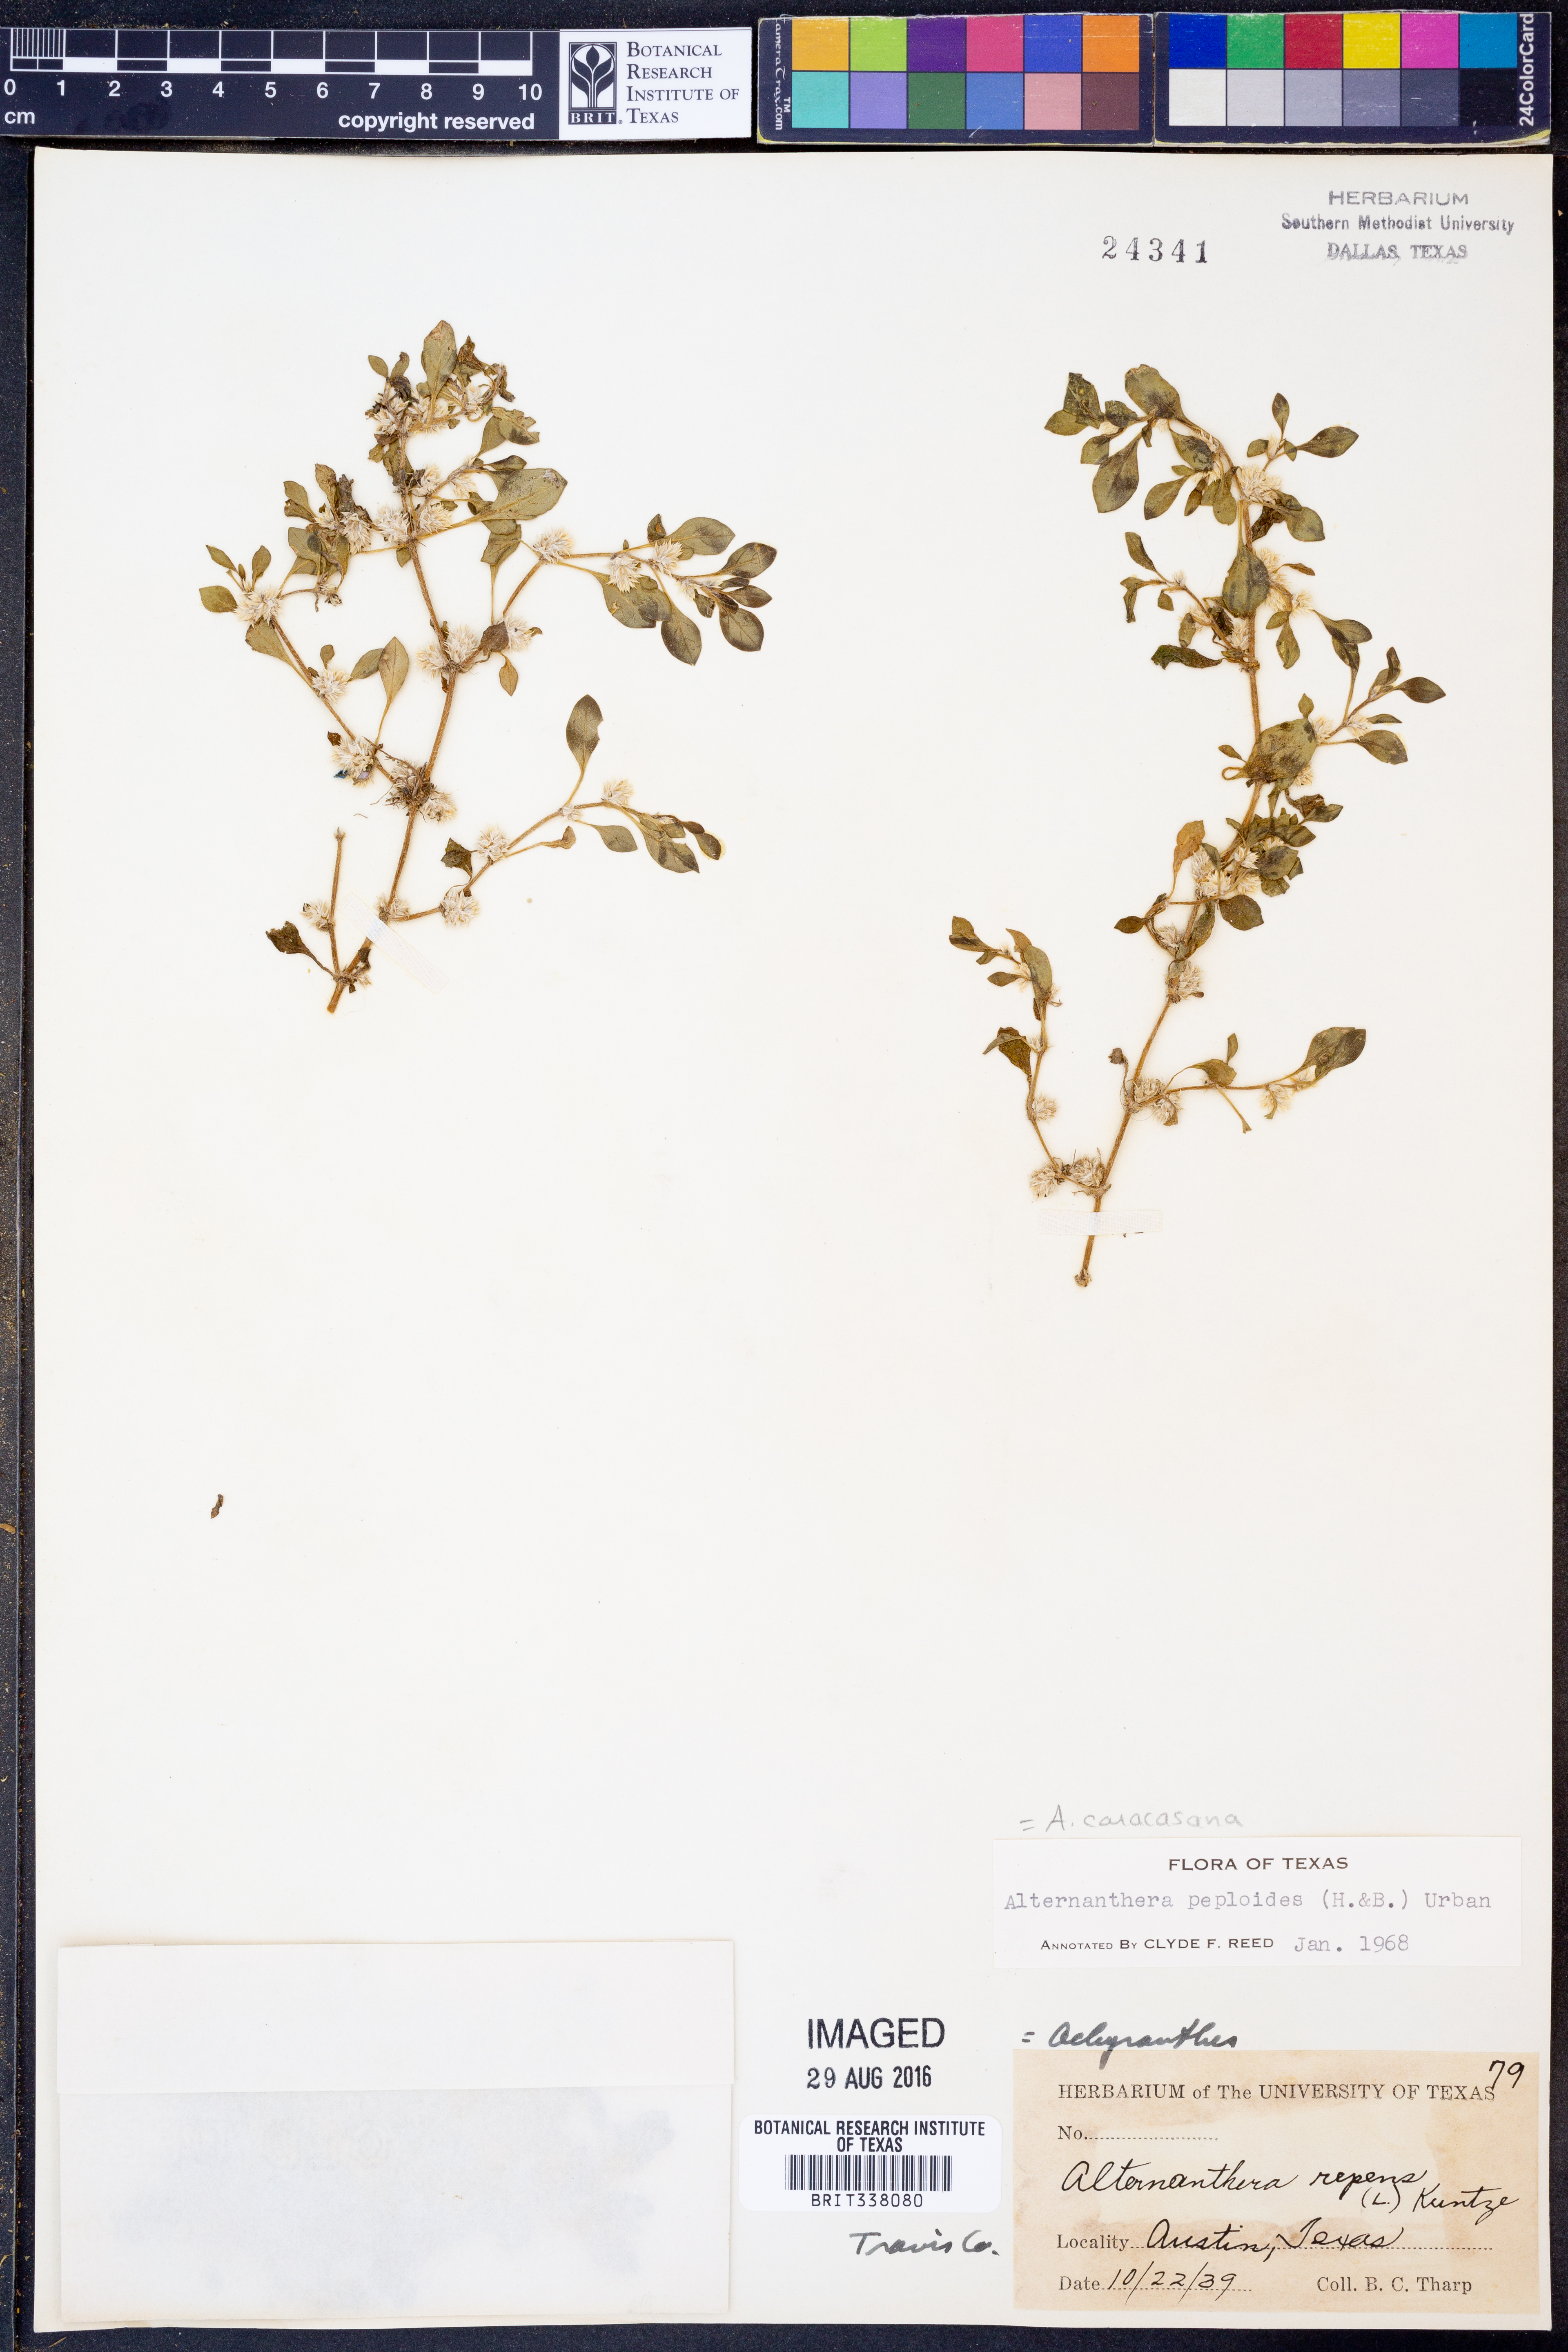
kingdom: Plantae
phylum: Tracheophyta
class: Magnoliopsida
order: Caryophyllales
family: Amaranthaceae
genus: Alternanthera
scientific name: Alternanthera caracasana
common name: Washerwoman
